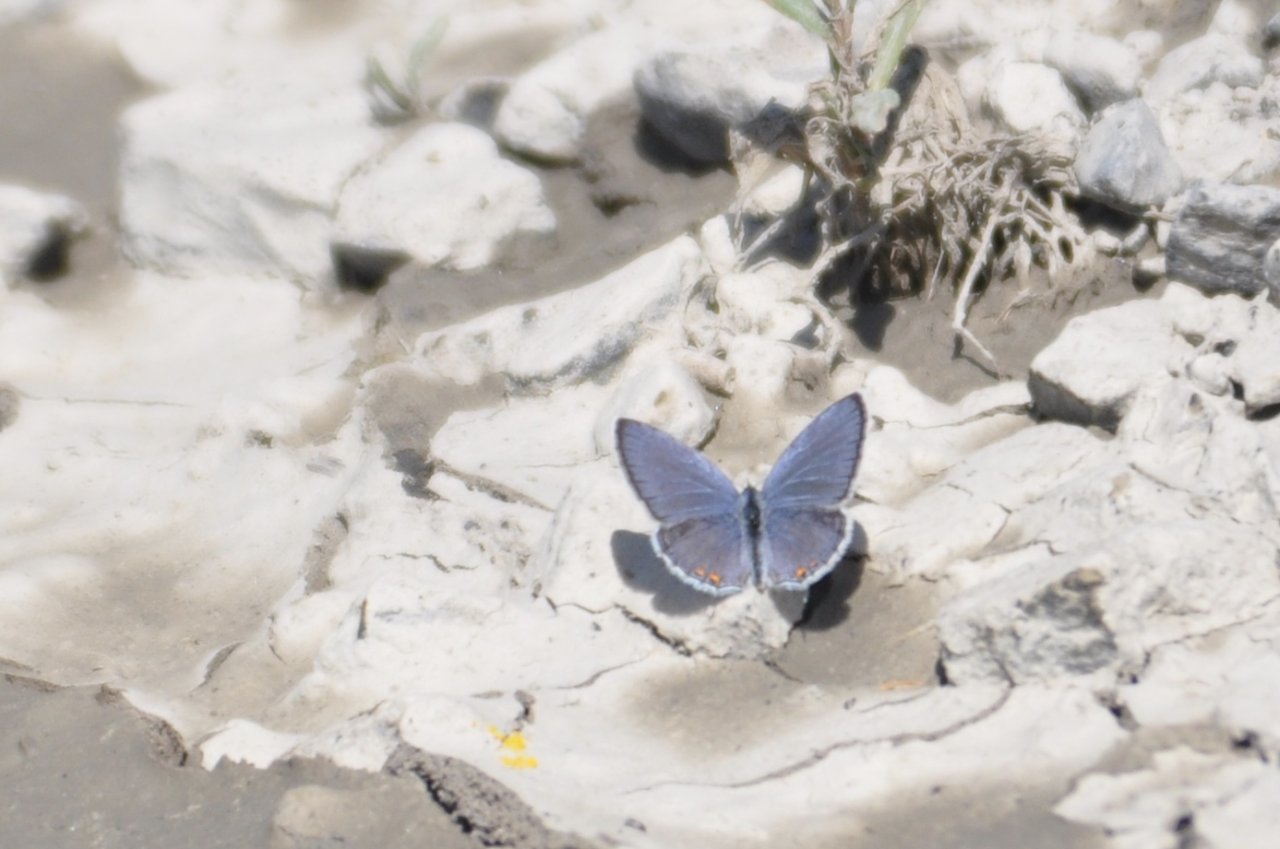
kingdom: Animalia
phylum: Arthropoda
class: Insecta
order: Lepidoptera
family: Lycaenidae
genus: Elkalyce
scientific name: Elkalyce comyntas
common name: Eastern Tailed-Blue
